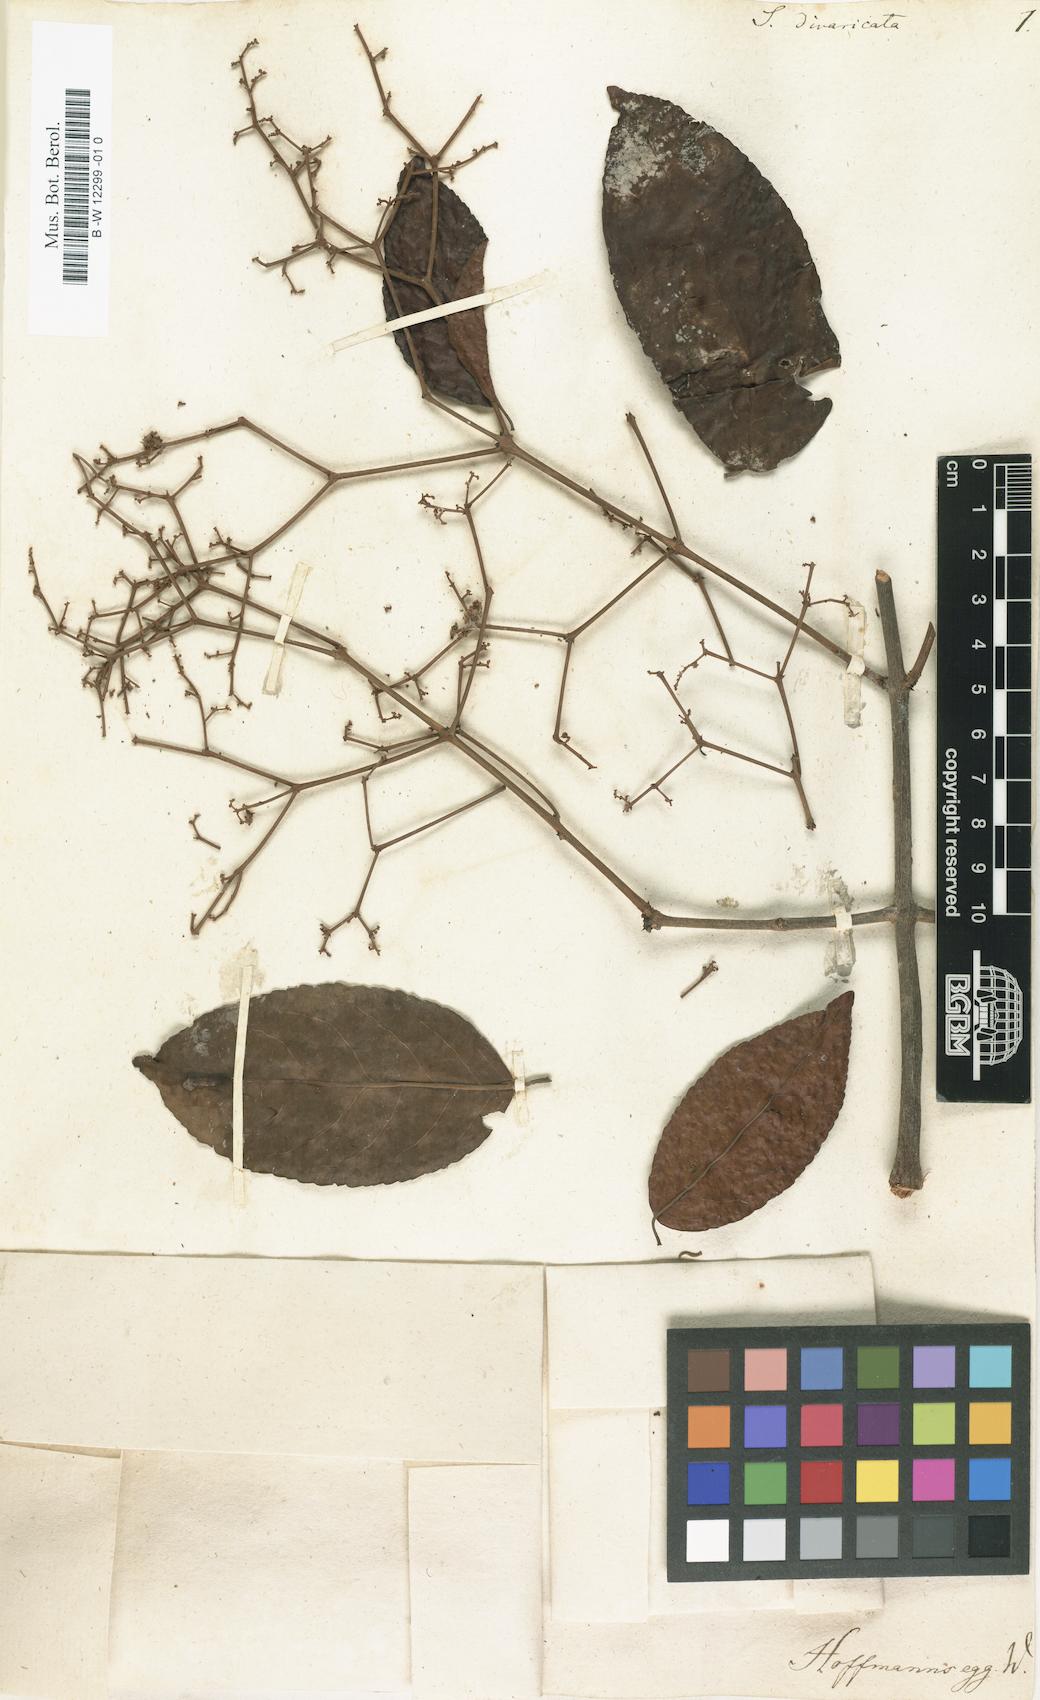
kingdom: Plantae
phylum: Tracheophyta
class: Magnoliopsida
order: Zygophyllales
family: Zygophyllaceae
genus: Seetzenia
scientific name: Seetzenia
